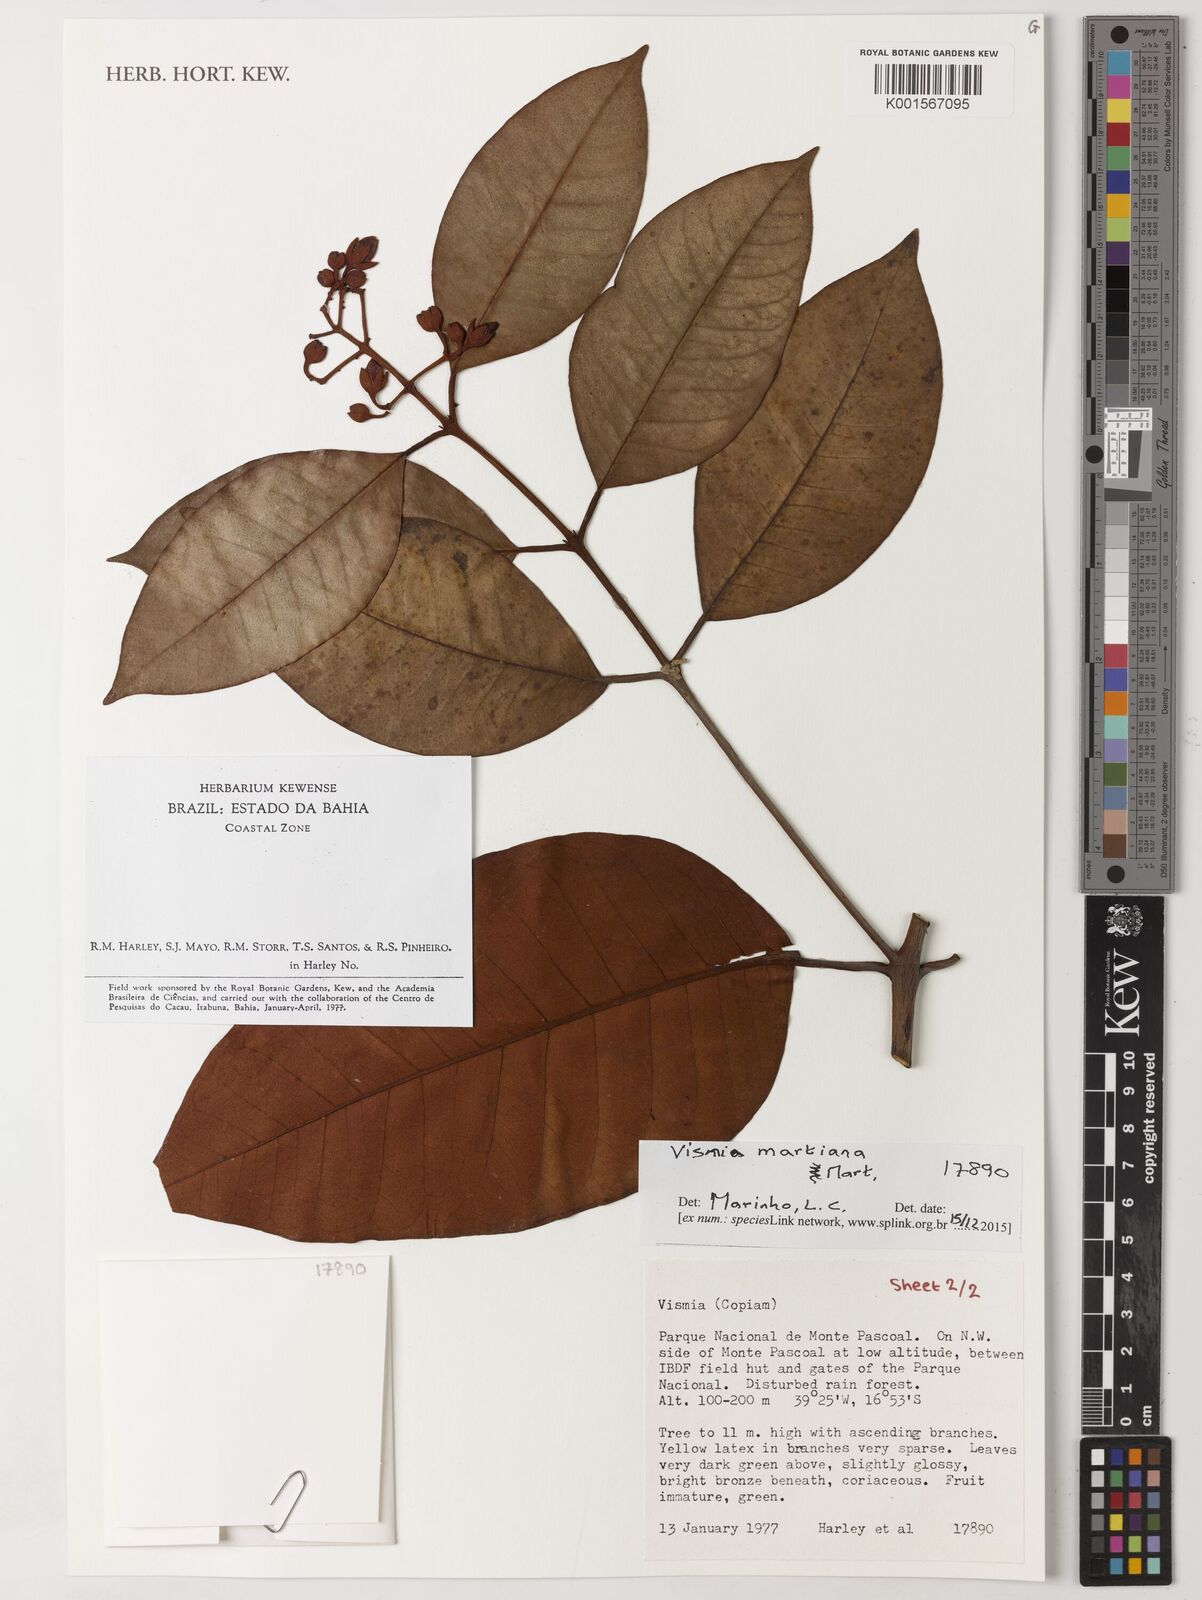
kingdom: Plantae
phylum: Tracheophyta
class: Magnoliopsida
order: Malpighiales
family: Hypericaceae
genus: Vismia
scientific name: Vismia martiana
